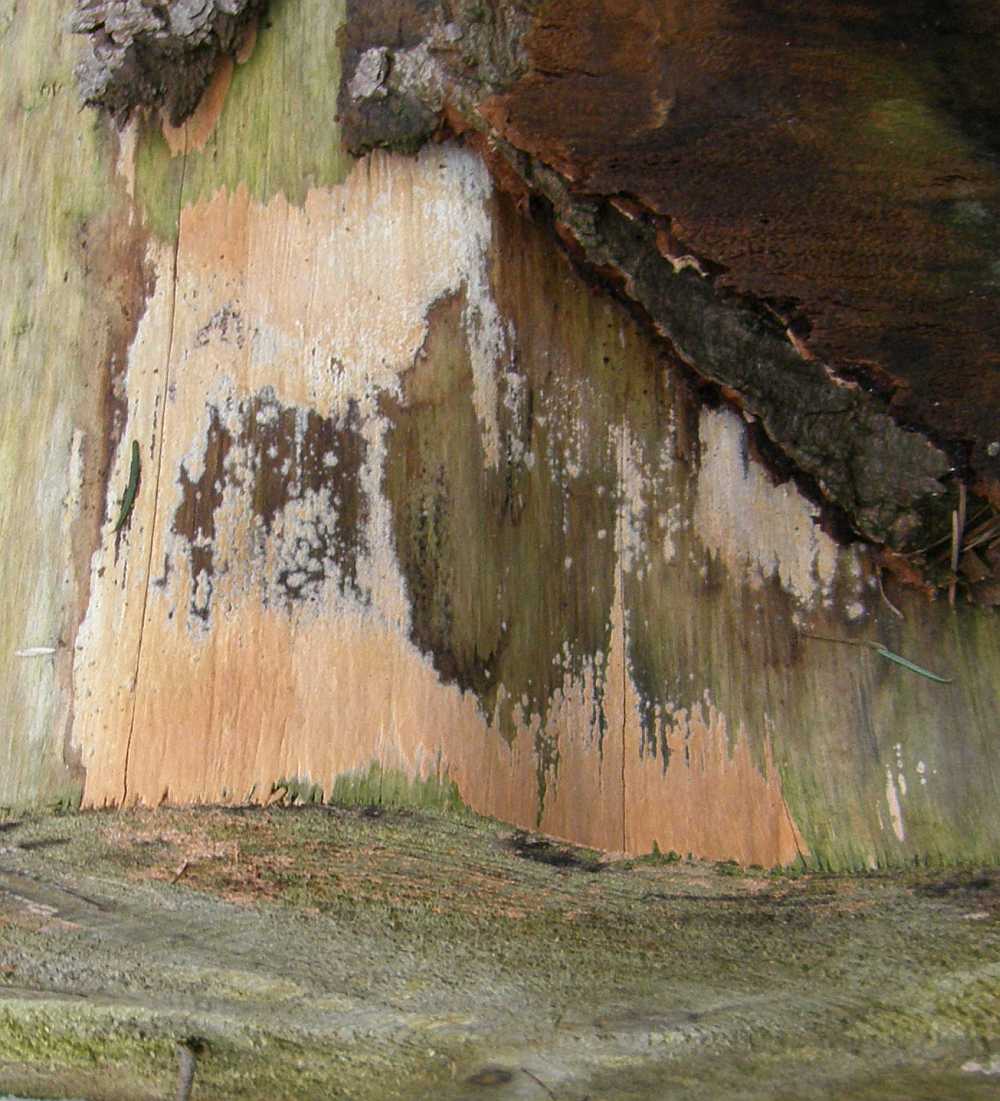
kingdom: Fungi
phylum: Basidiomycota
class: Agaricomycetes
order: Russulales
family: Peniophoraceae
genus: Peniophora
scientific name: Peniophora incarnata
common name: laksefarvet voksskind
